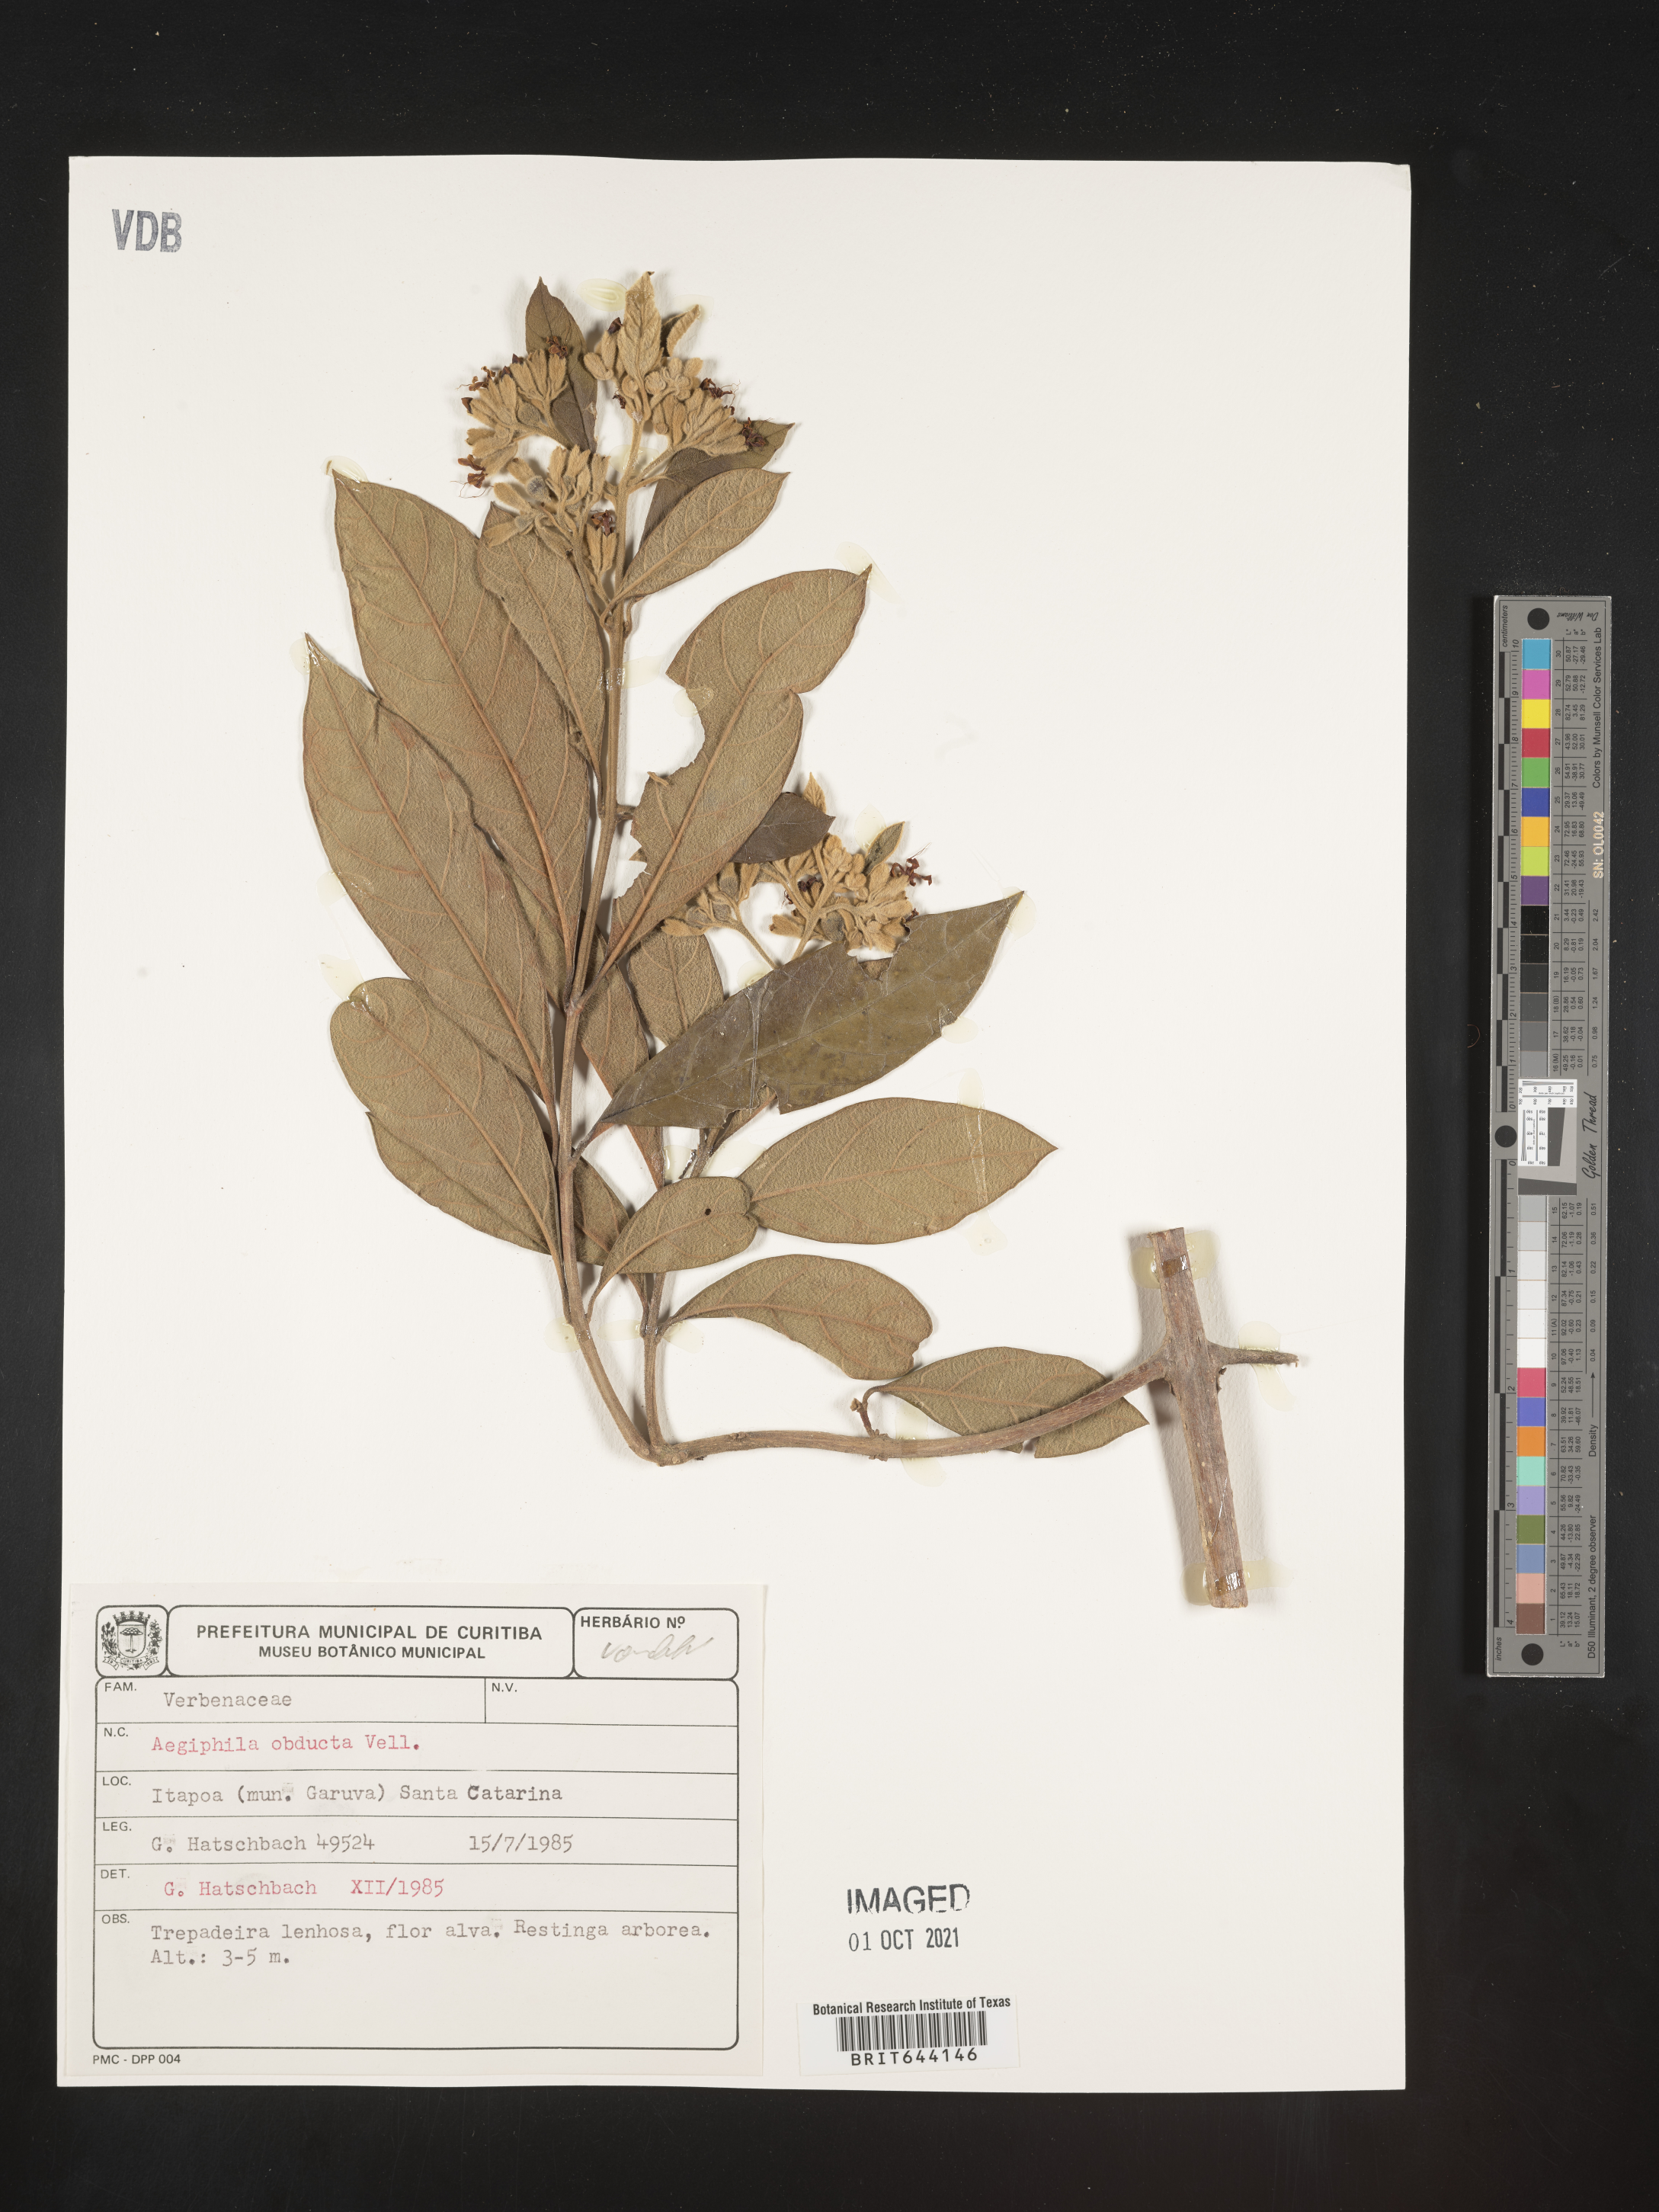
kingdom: Plantae
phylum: Tracheophyta
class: Magnoliopsida
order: Lamiales
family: Lamiaceae
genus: Aegiphila
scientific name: Aegiphila
